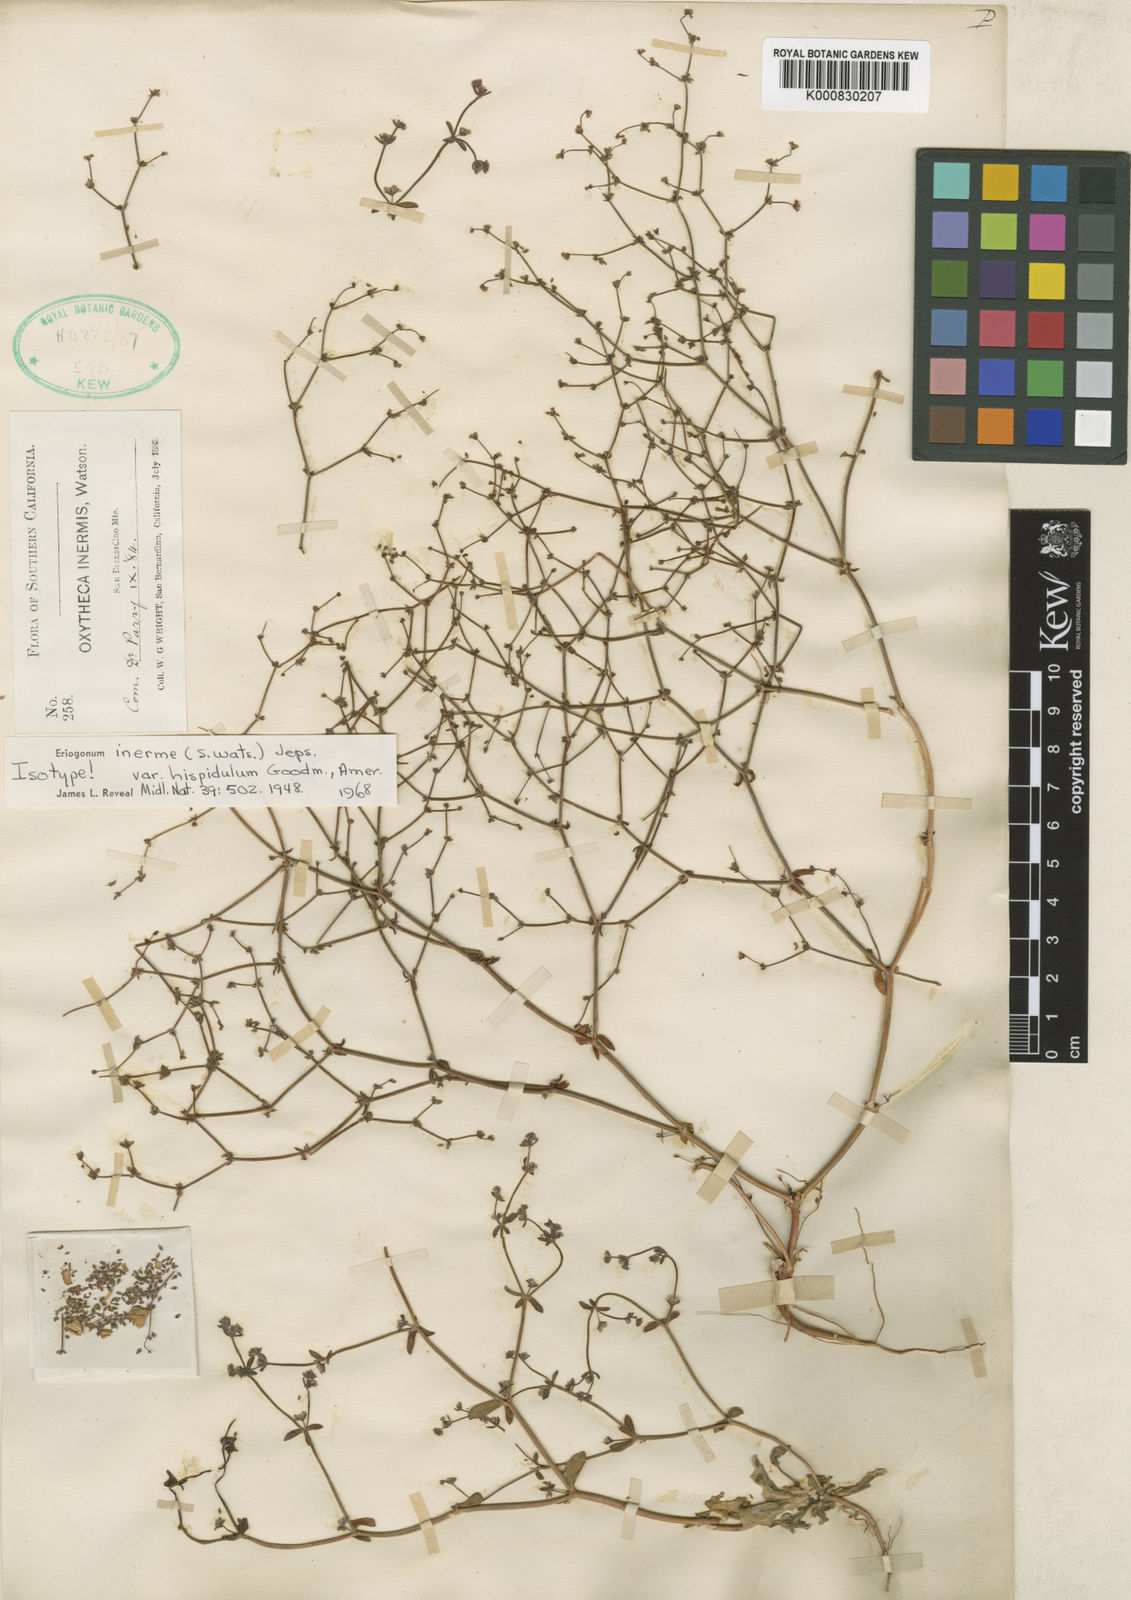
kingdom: Plantae
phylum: Tracheophyta
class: Magnoliopsida
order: Caryophyllales
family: Polygonaceae
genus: Eriogonum
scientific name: Eriogonum inerme
